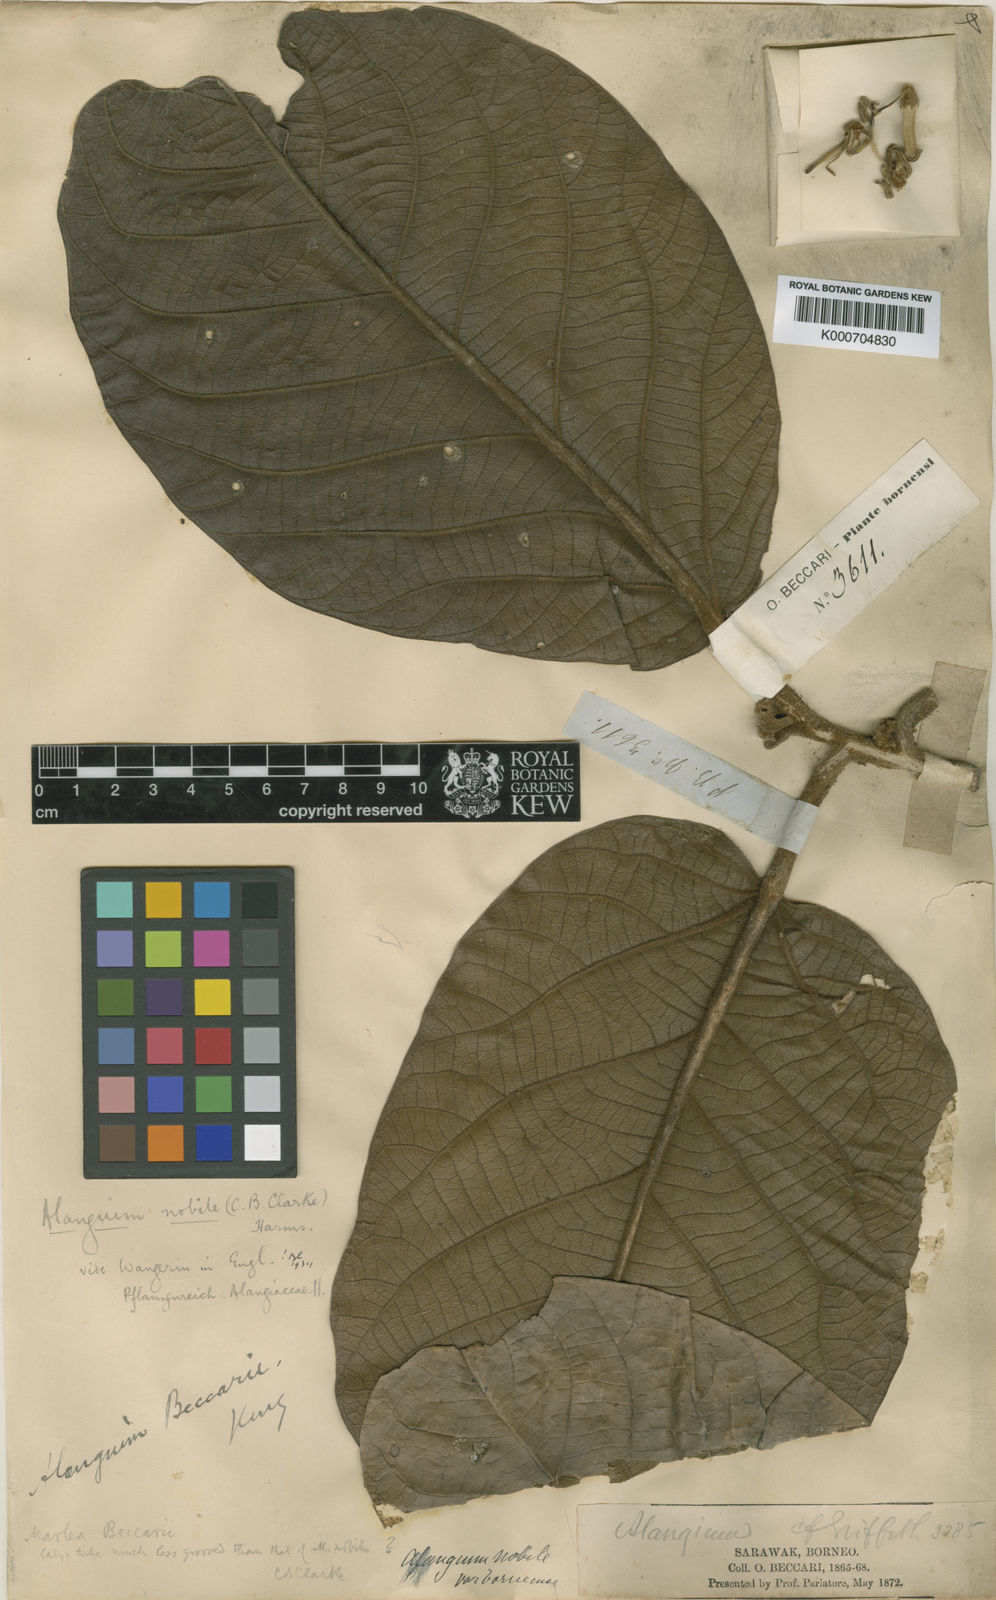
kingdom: Plantae
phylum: Tracheophyta
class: Magnoliopsida
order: Cornales
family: Cornaceae
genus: Alangium
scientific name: Alangium nobile
